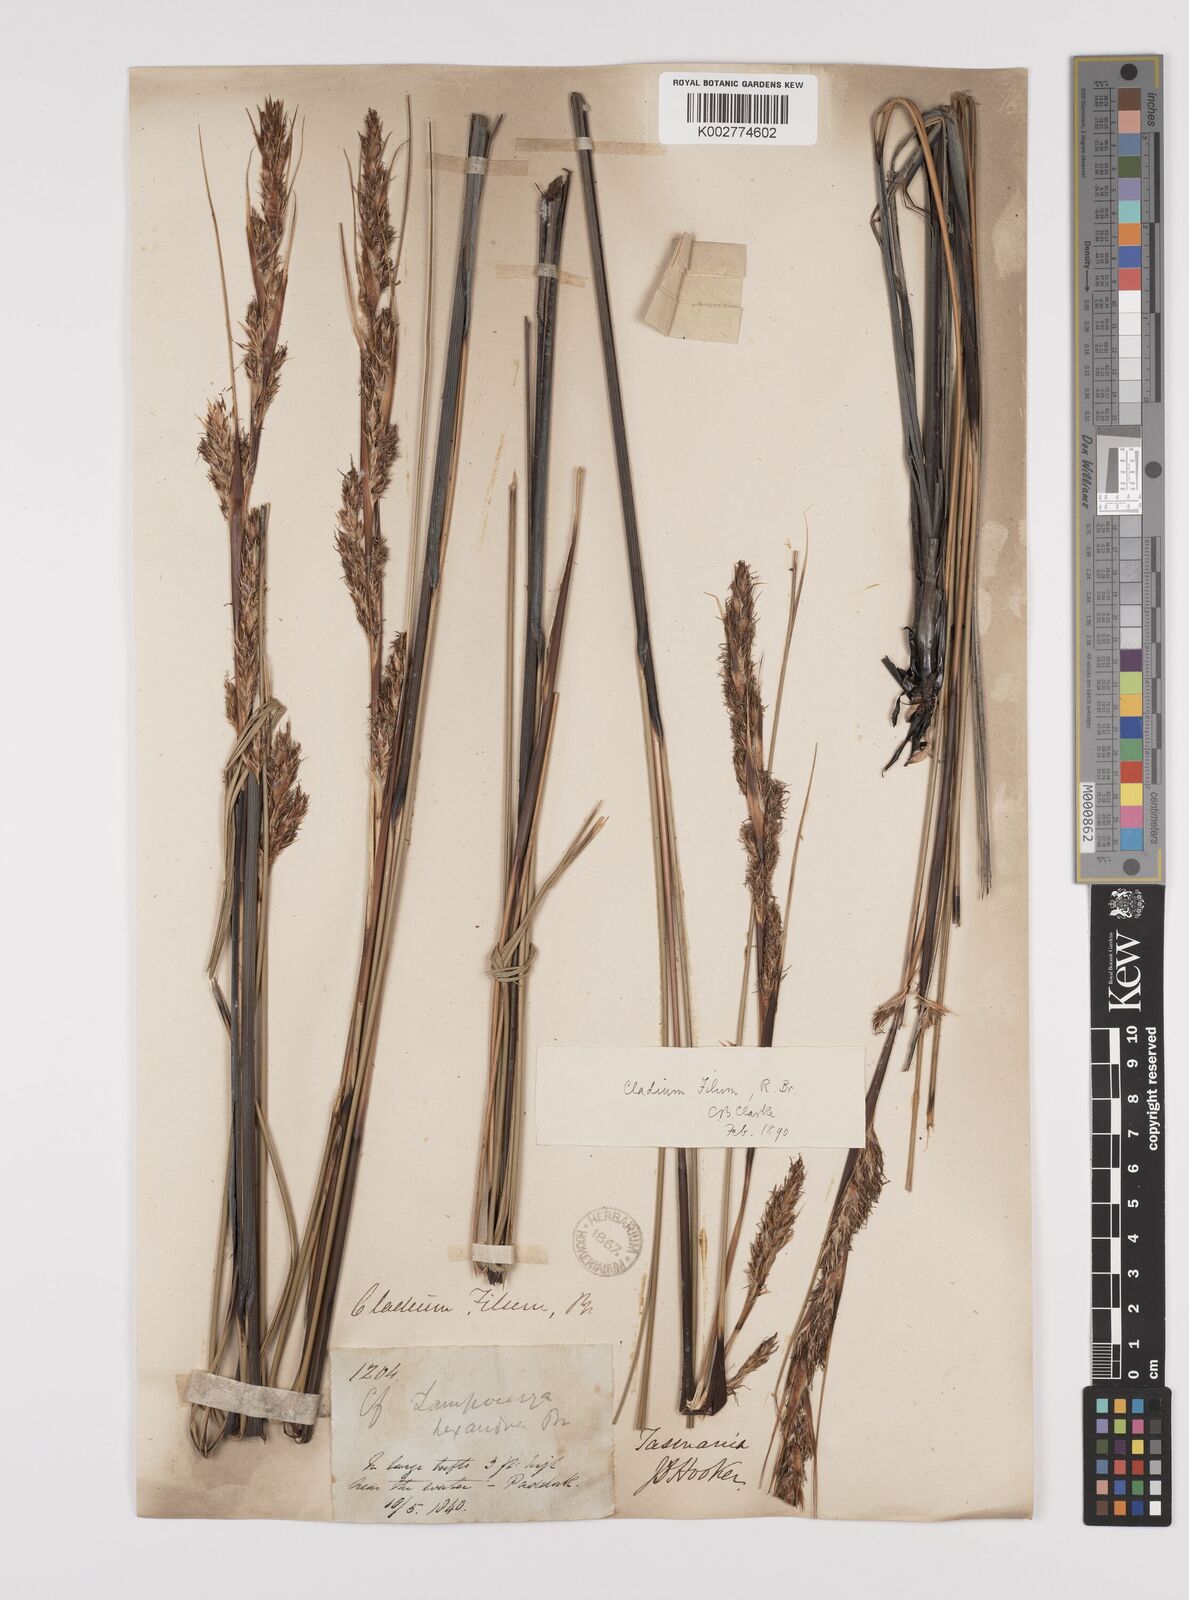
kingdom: Plantae
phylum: Tracheophyta
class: Liliopsida
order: Poales
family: Cyperaceae
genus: Gahnia
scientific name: Gahnia filum
